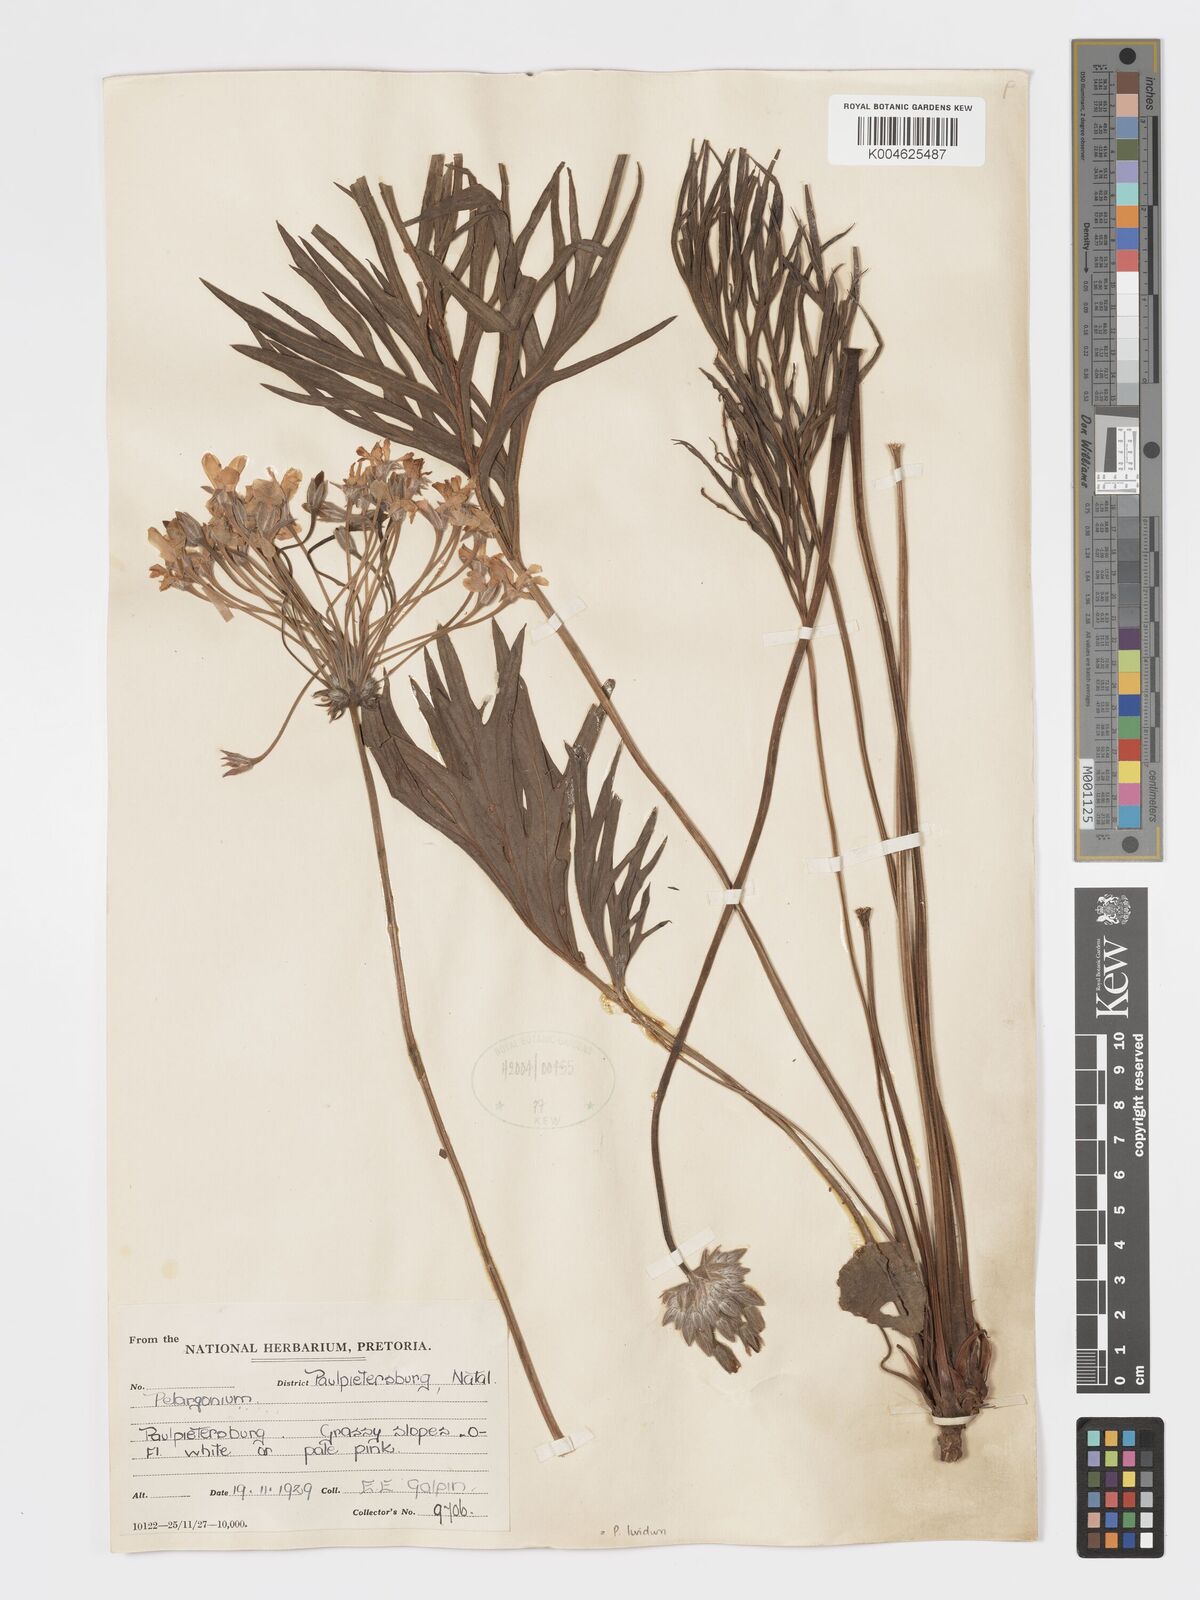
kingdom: Plantae
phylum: Tracheophyta
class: Magnoliopsida
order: Geraniales
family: Geraniaceae
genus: Pelargonium
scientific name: Pelargonium luridum
